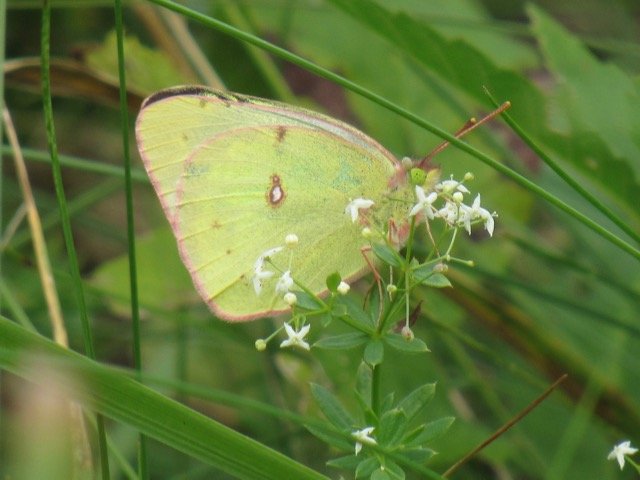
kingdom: Animalia
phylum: Arthropoda
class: Insecta
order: Lepidoptera
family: Pieridae
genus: Colias
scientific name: Colias philodice
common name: Clouded Sulphur
